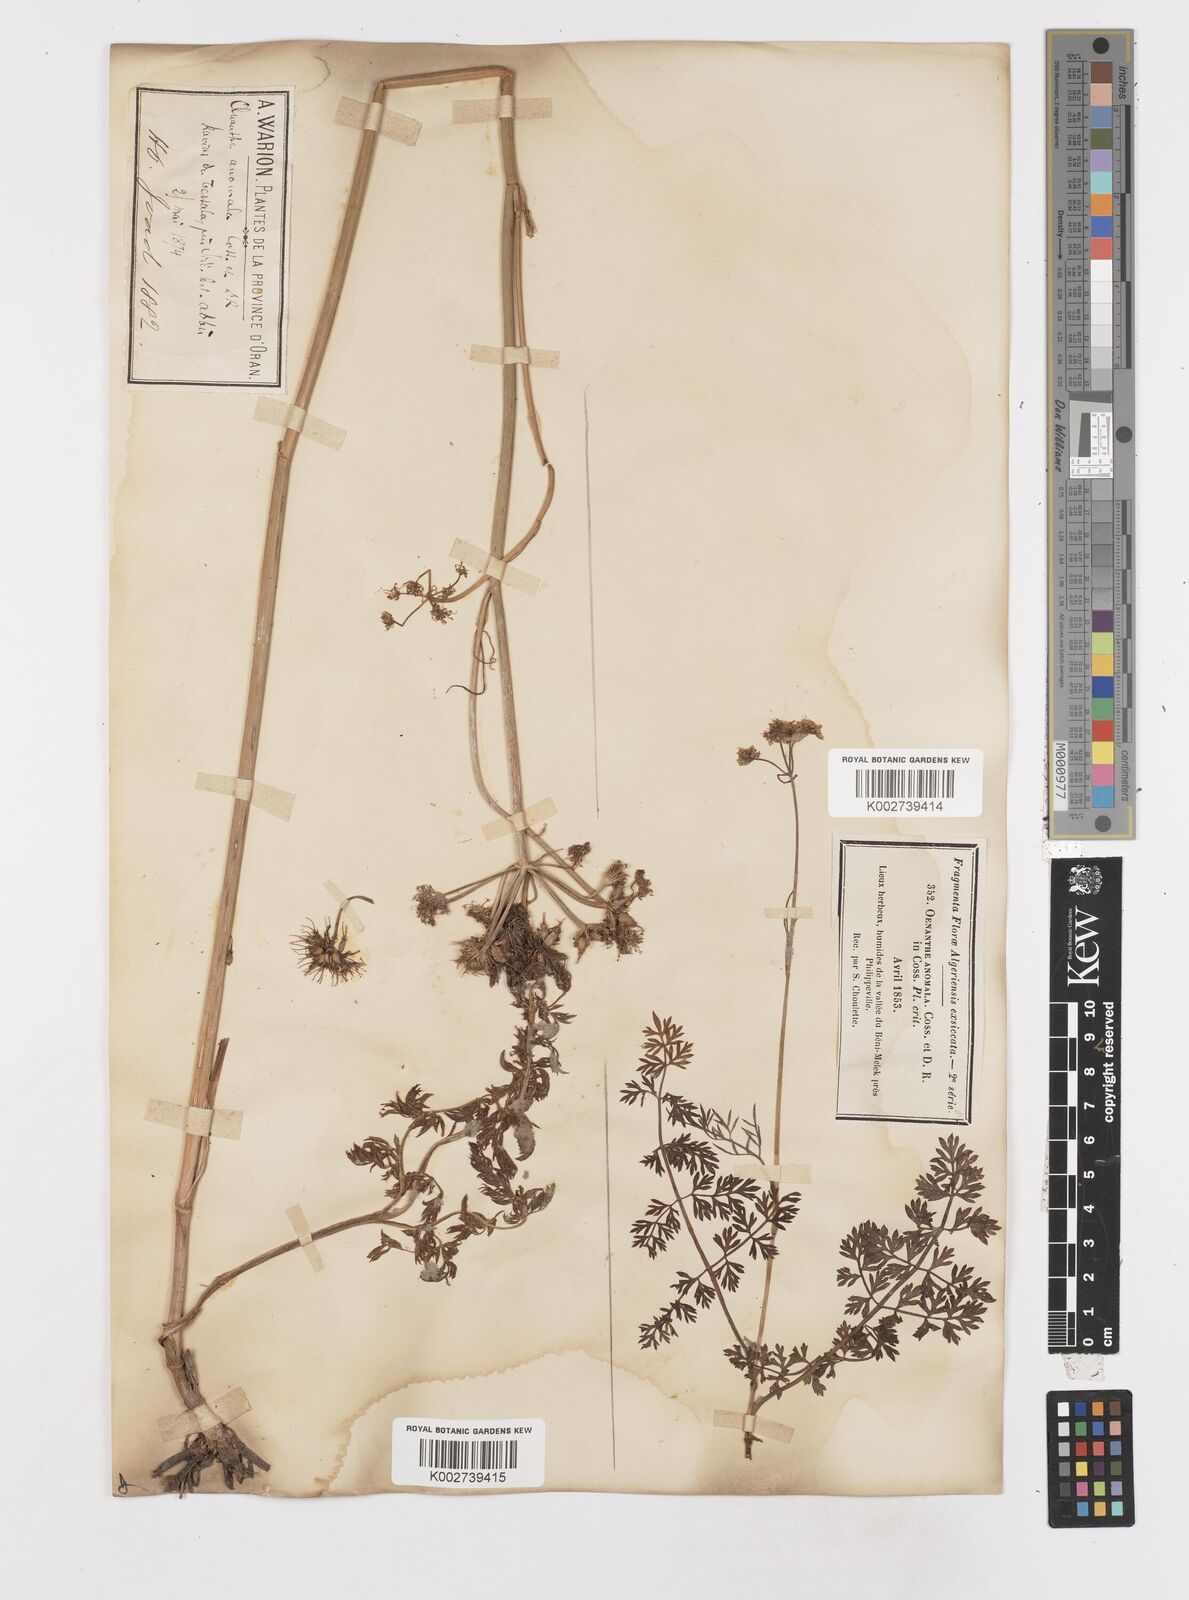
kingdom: Plantae
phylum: Tracheophyta
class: Magnoliopsida
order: Apiales
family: Apiaceae
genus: Oenanthe
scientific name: Oenanthe virgata
